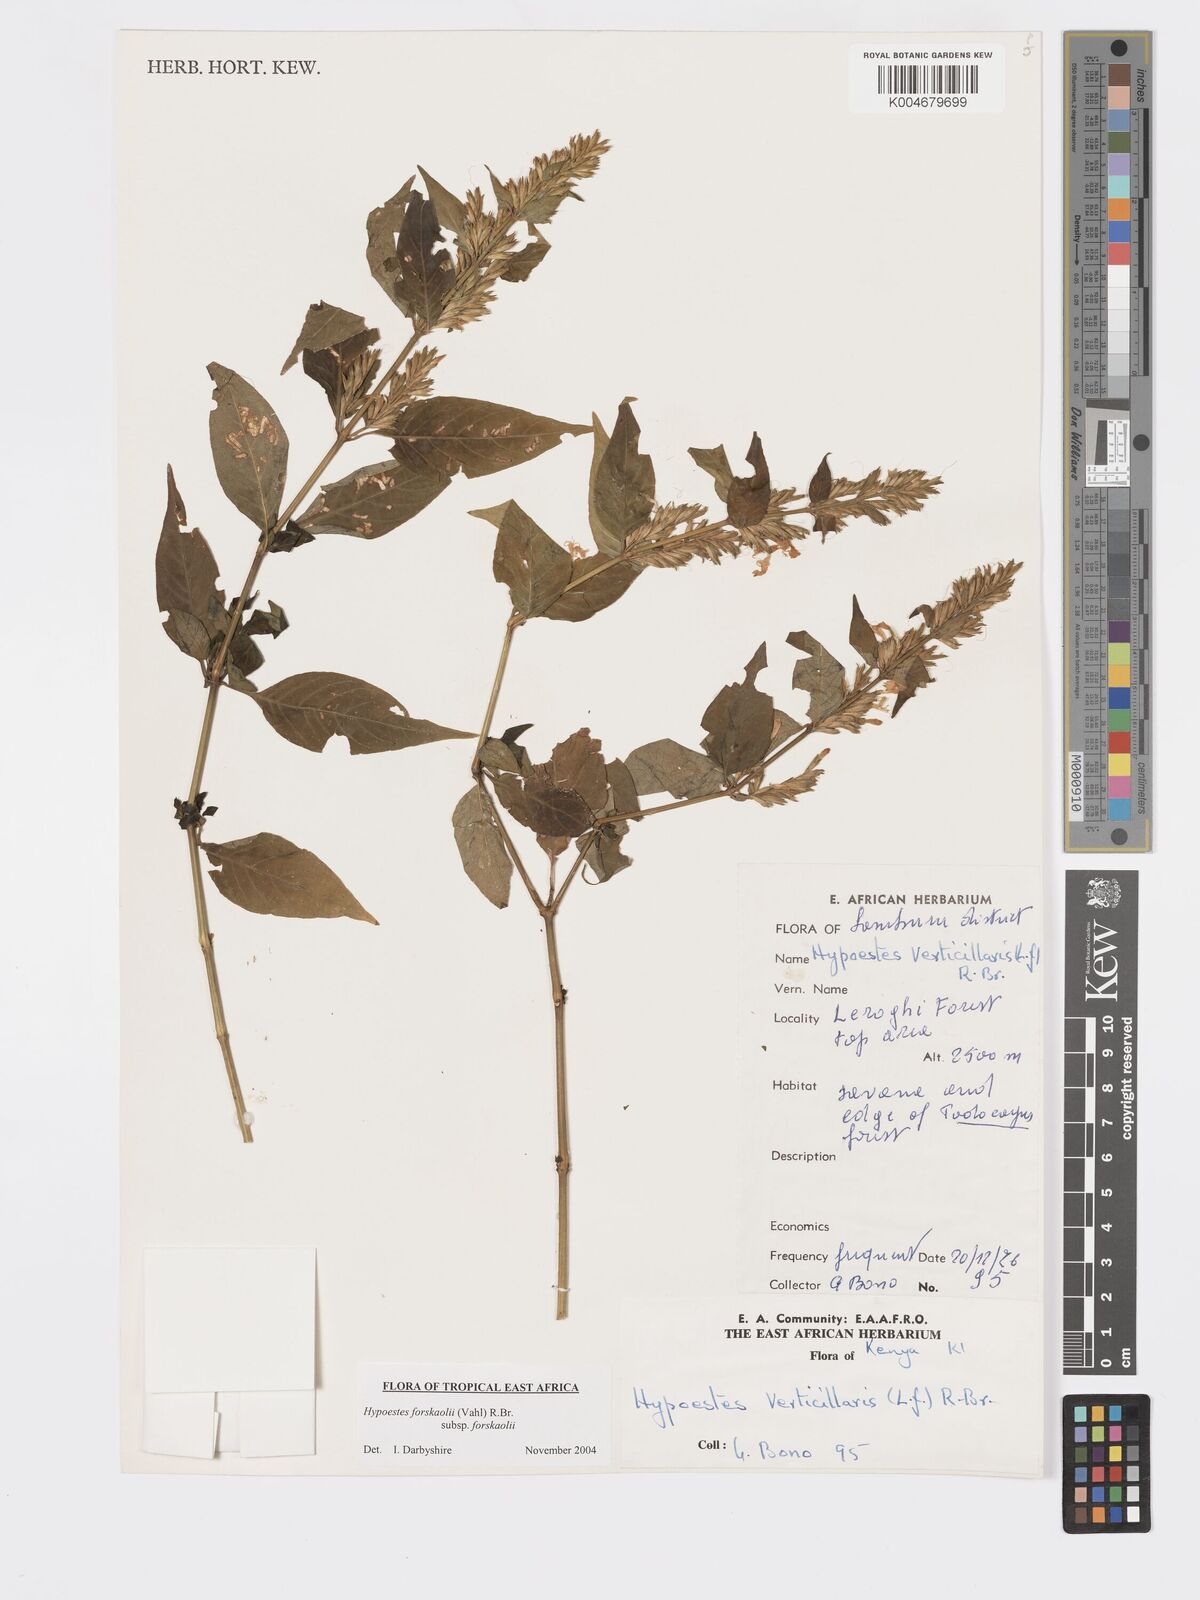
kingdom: Plantae
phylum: Tracheophyta
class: Magnoliopsida
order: Lamiales
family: Acanthaceae
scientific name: Acanthaceae
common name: Acanthaceae
